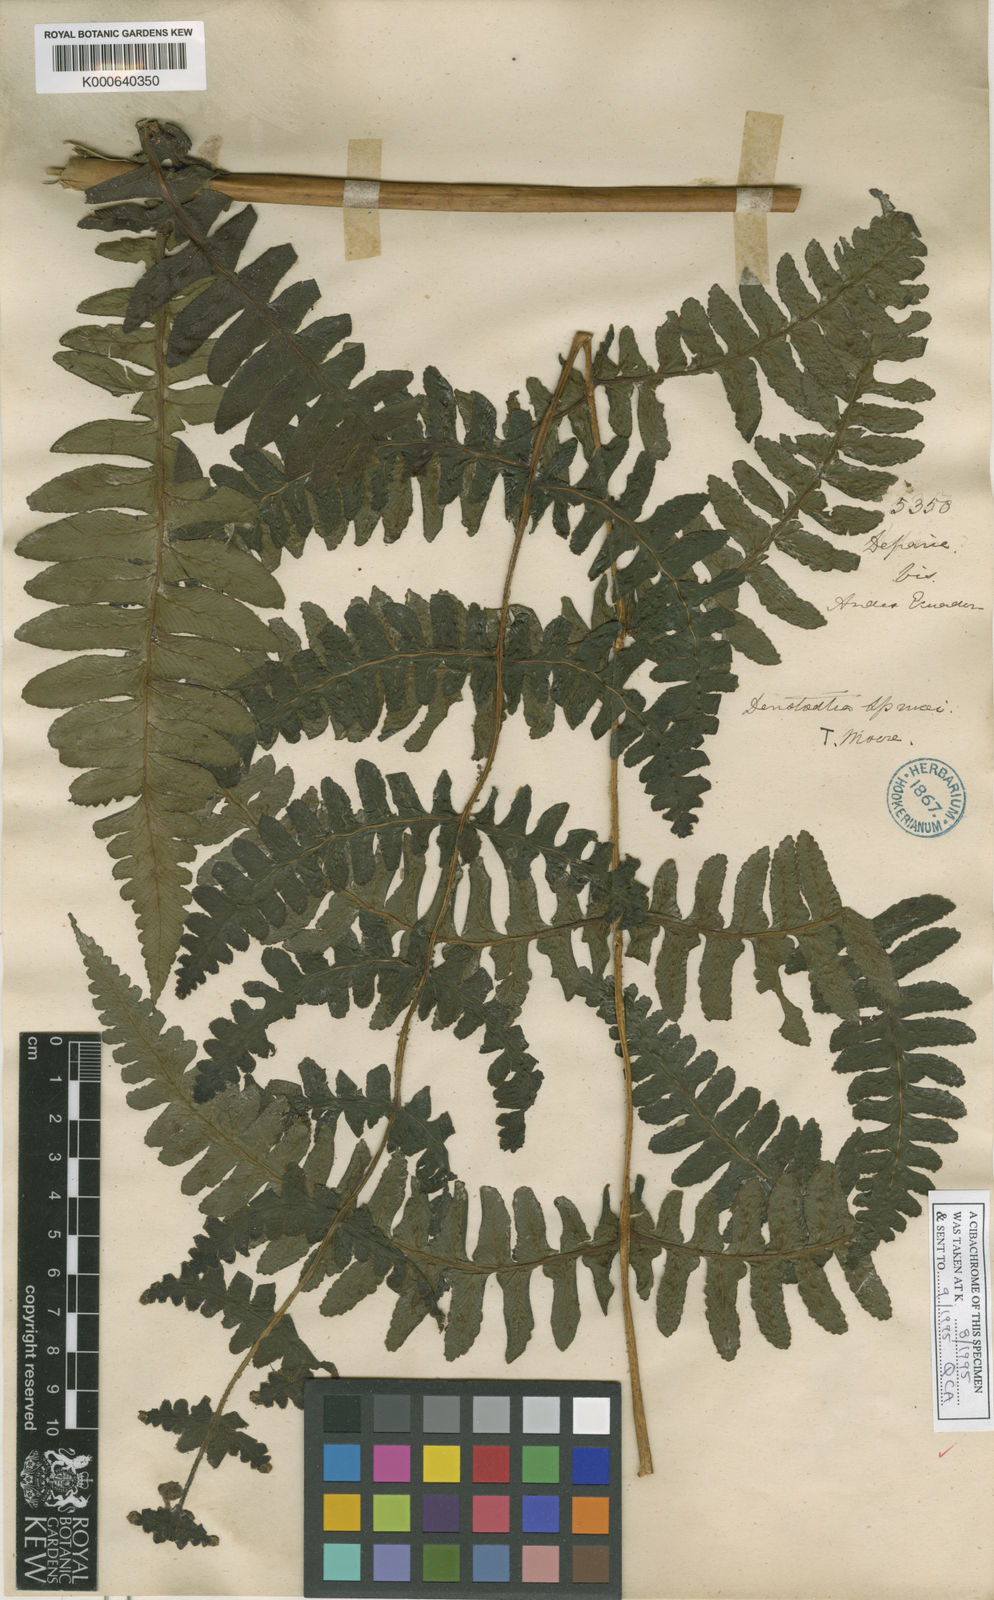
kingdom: Plantae
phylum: Tracheophyta
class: Polypodiopsida
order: Polypodiales
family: Dennstaedtiaceae
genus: Dennstaedtia
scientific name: Dennstaedtia sprucei
